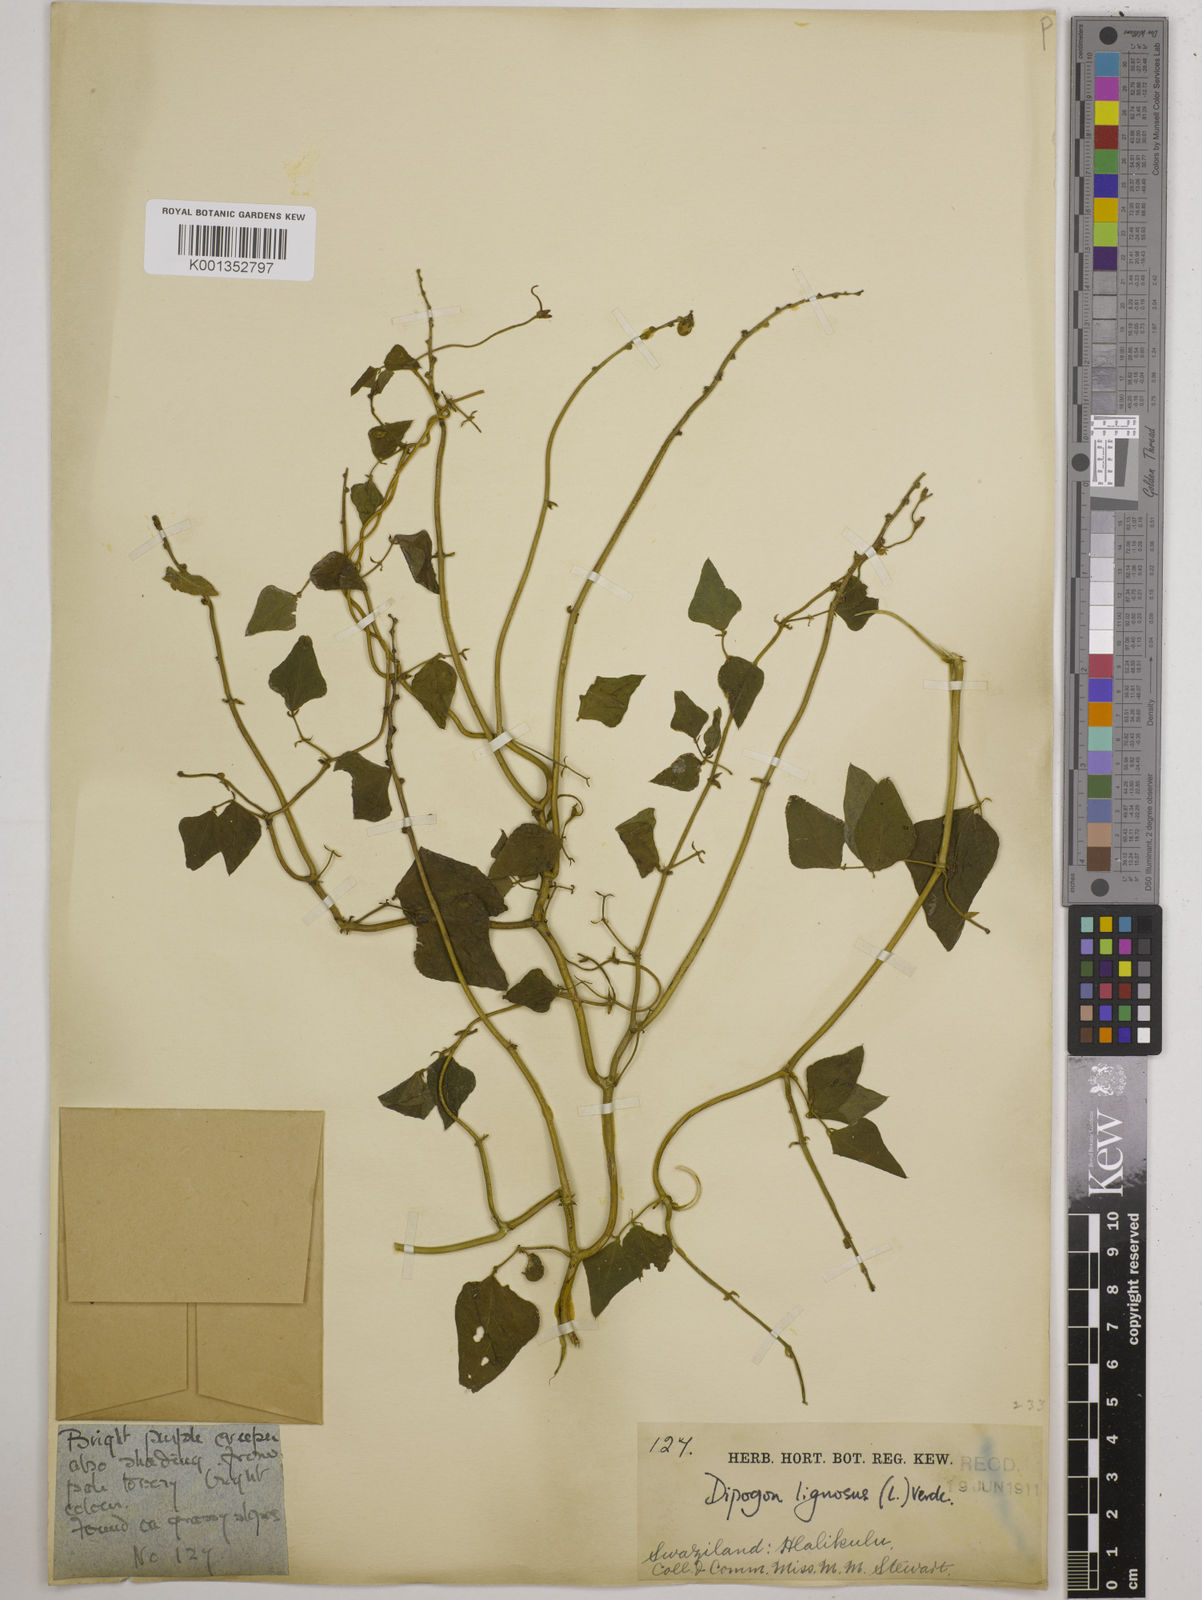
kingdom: Plantae
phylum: Tracheophyta
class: Magnoliopsida
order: Fabales
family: Fabaceae
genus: Dipogon
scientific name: Dipogon lignosus
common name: Okie bean
